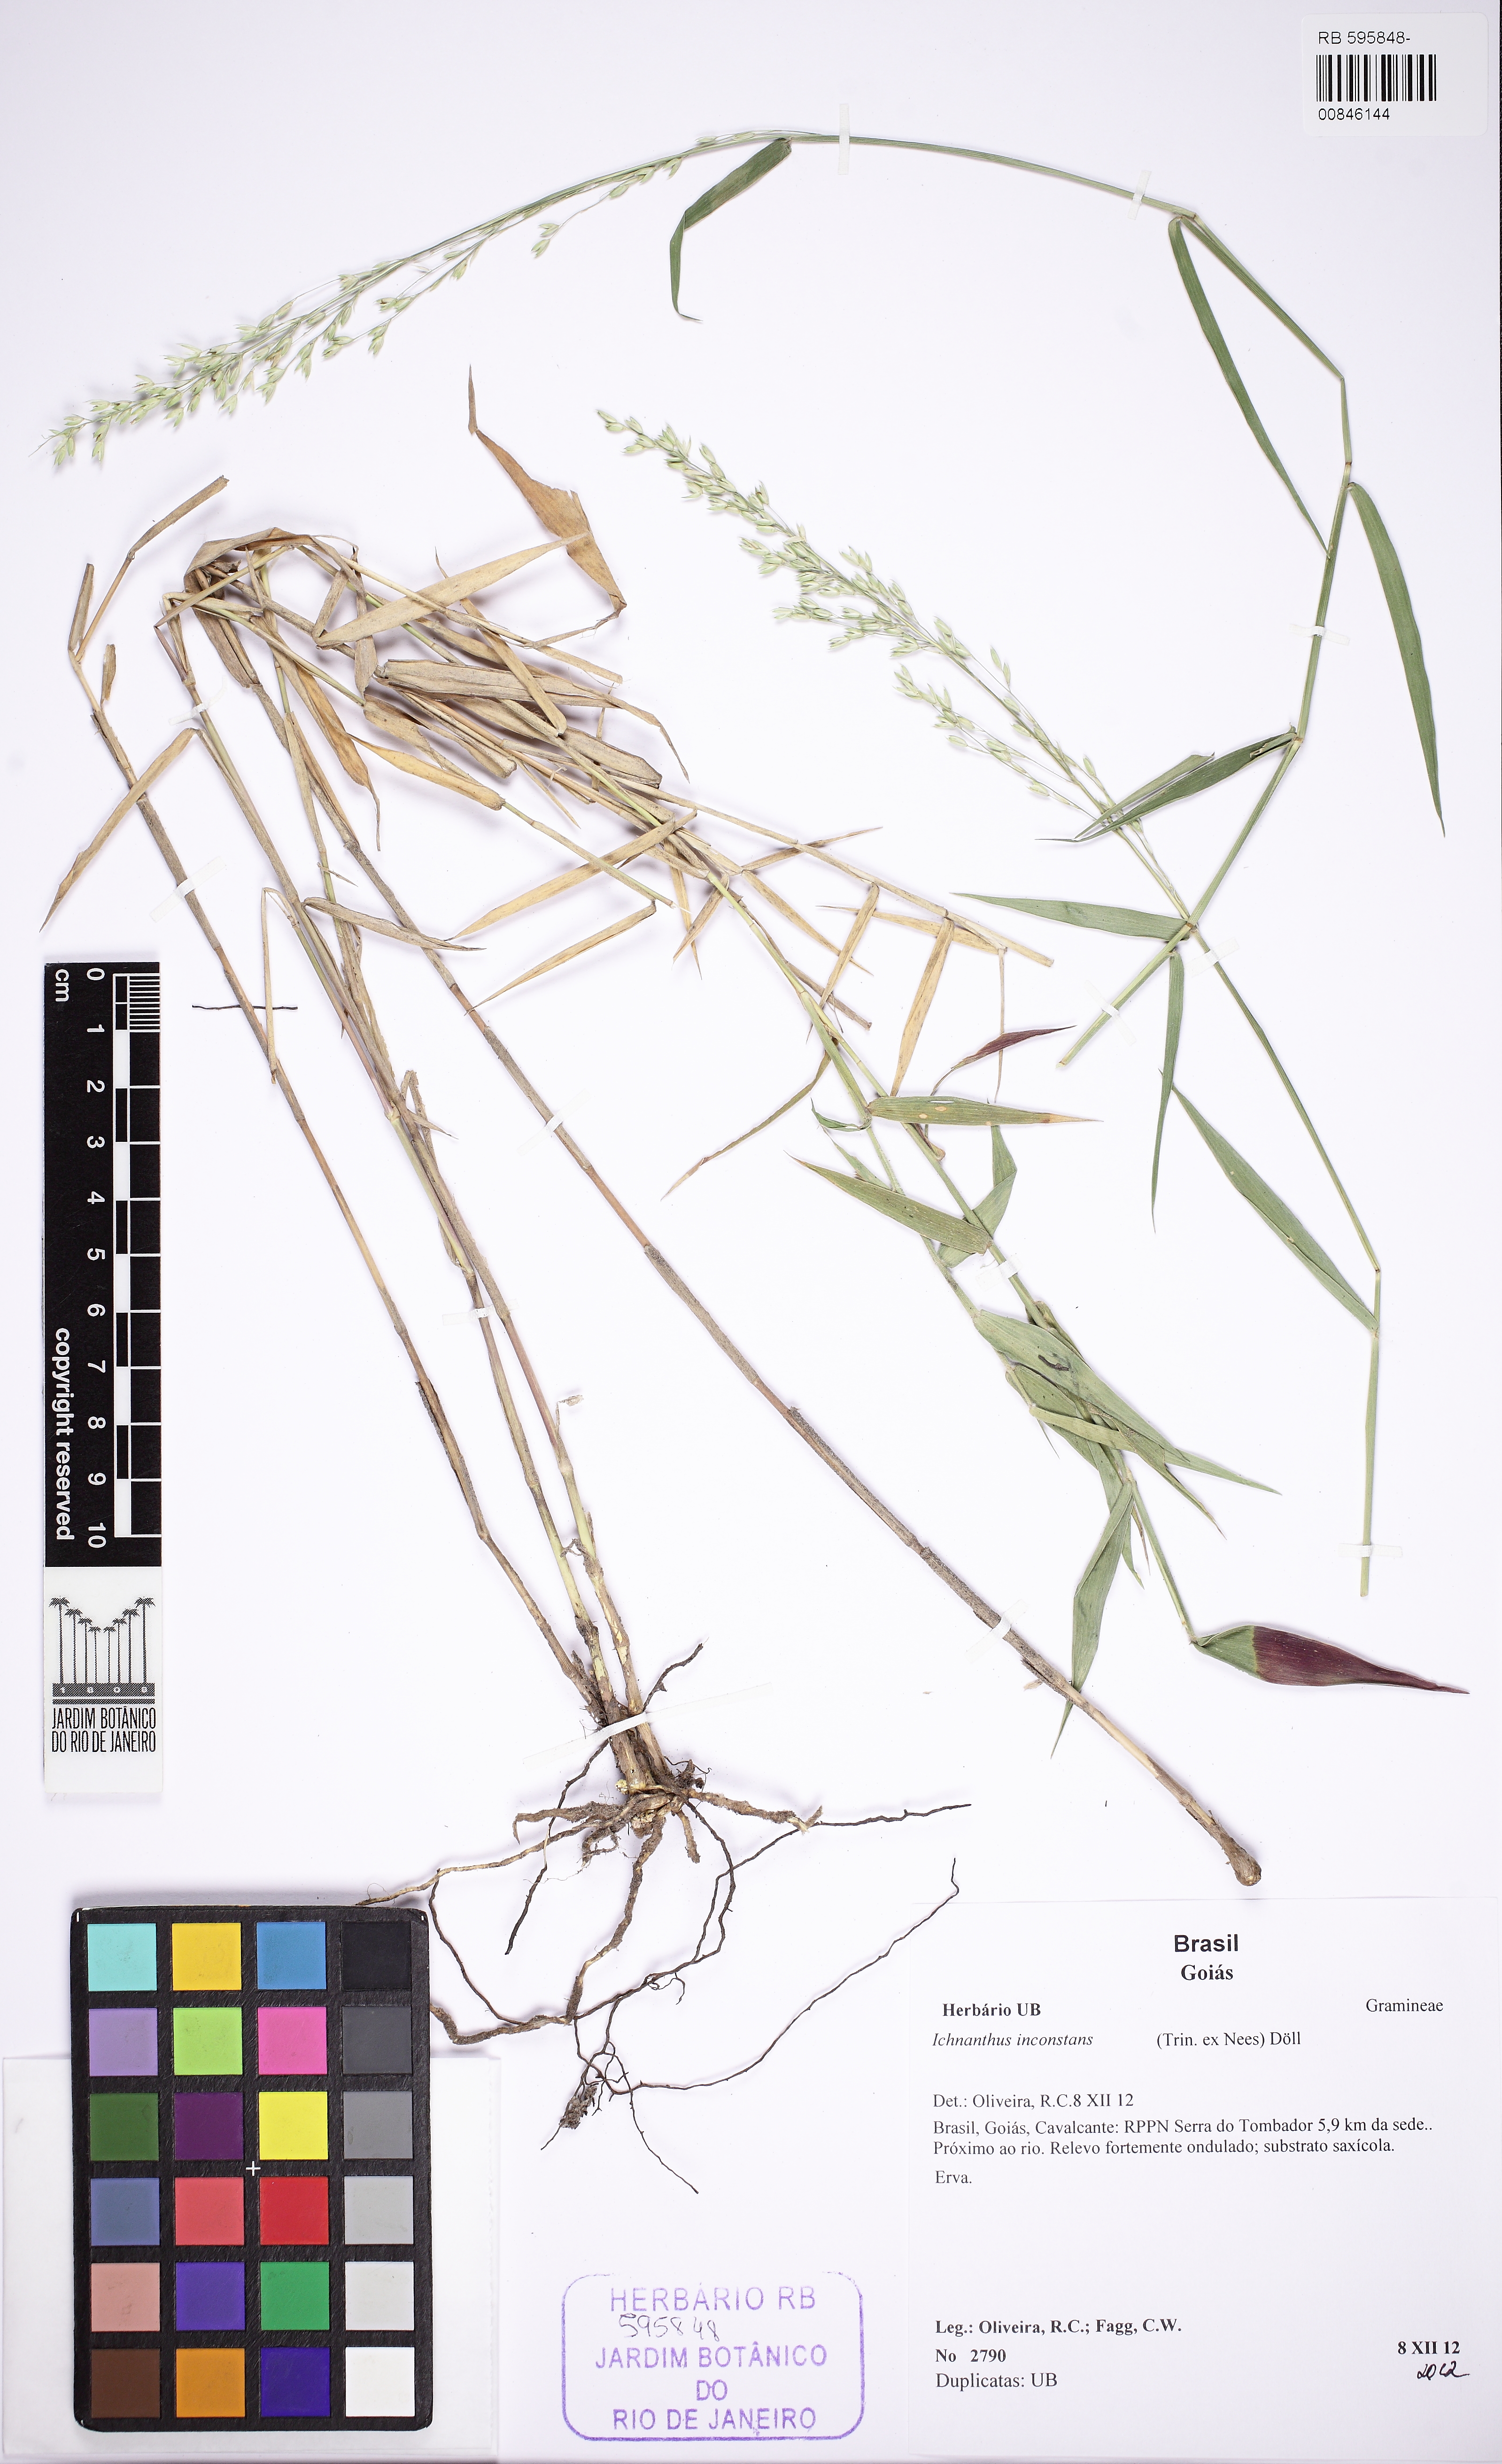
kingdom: Plantae
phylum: Tracheophyta
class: Liliopsida
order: Poales
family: Poaceae
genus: Ichnanthus
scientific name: Ichnanthus inconstans
